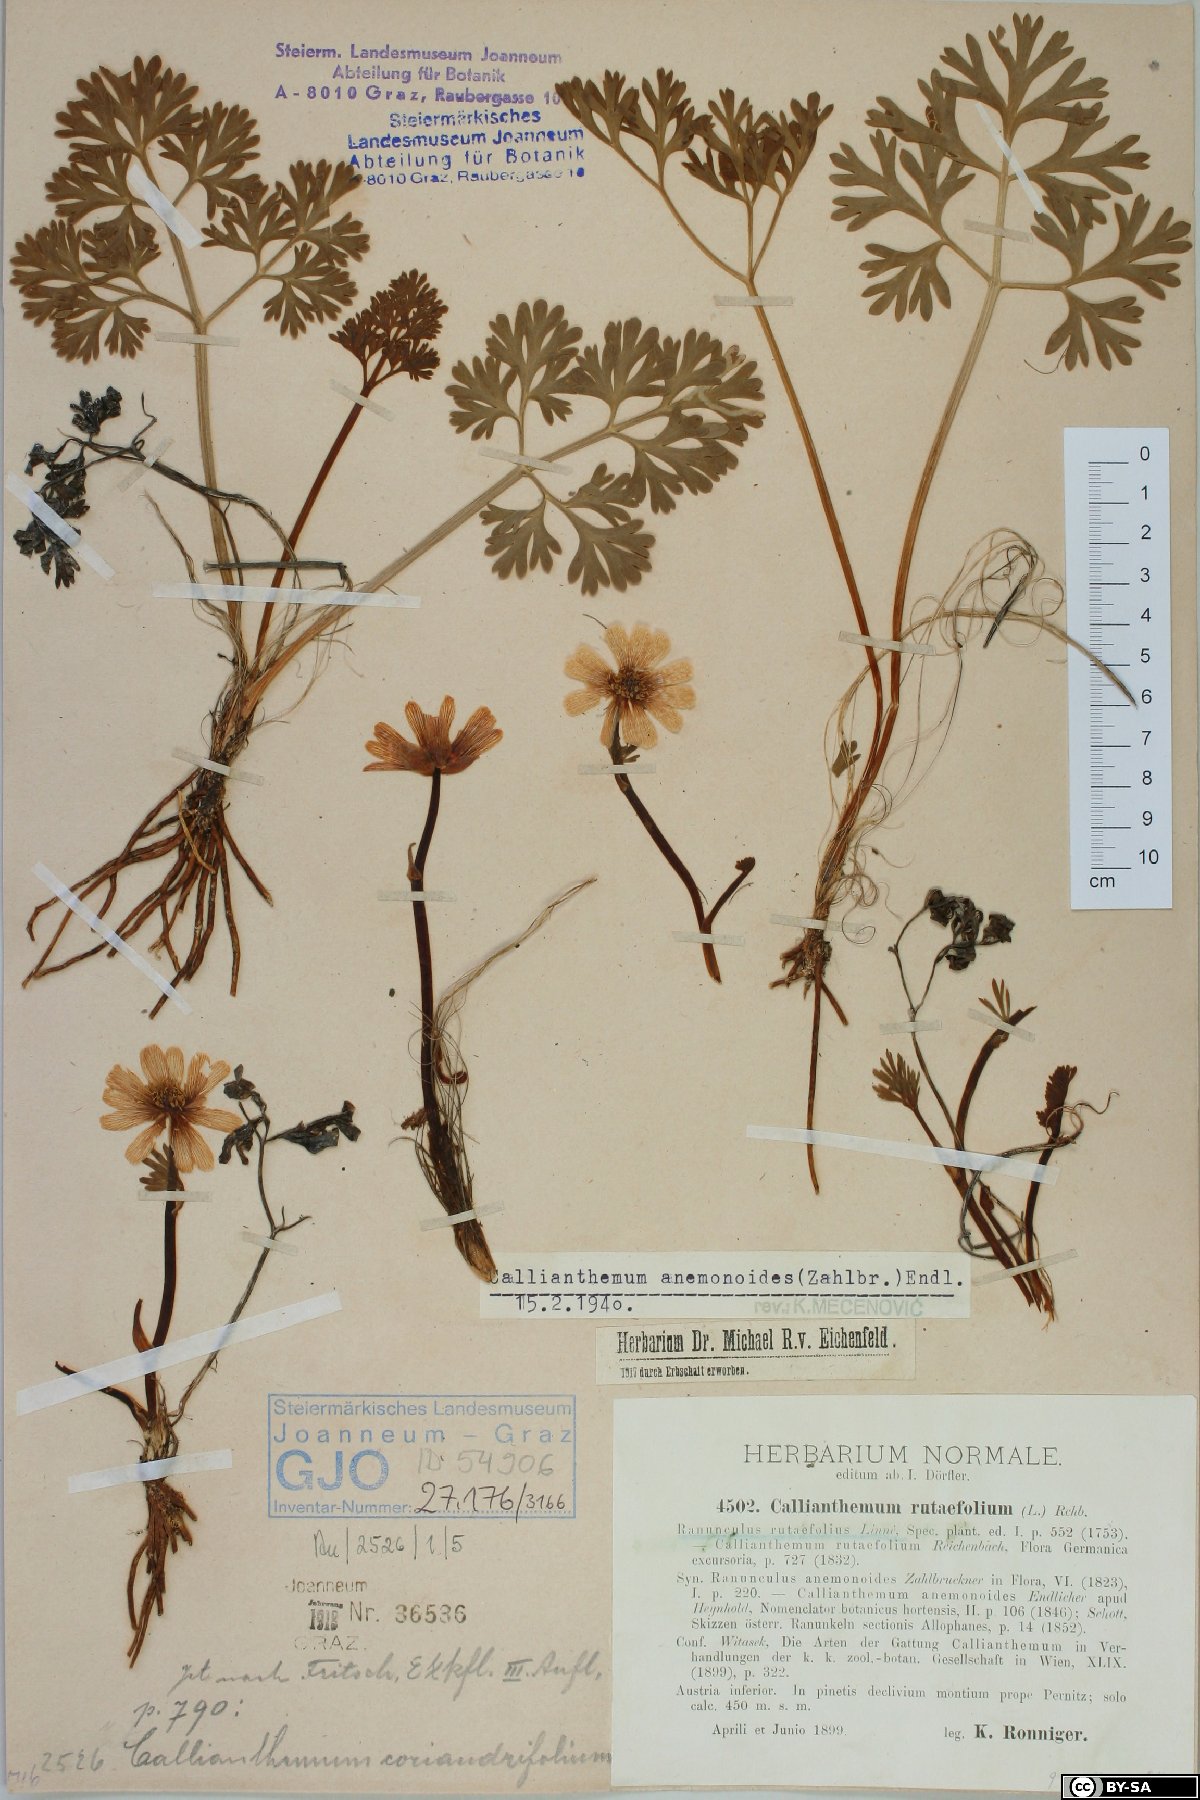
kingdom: Plantae
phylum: Tracheophyta
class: Magnoliopsida
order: Ranunculales
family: Ranunculaceae
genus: Callianthemum
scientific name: Callianthemum anemonoides
